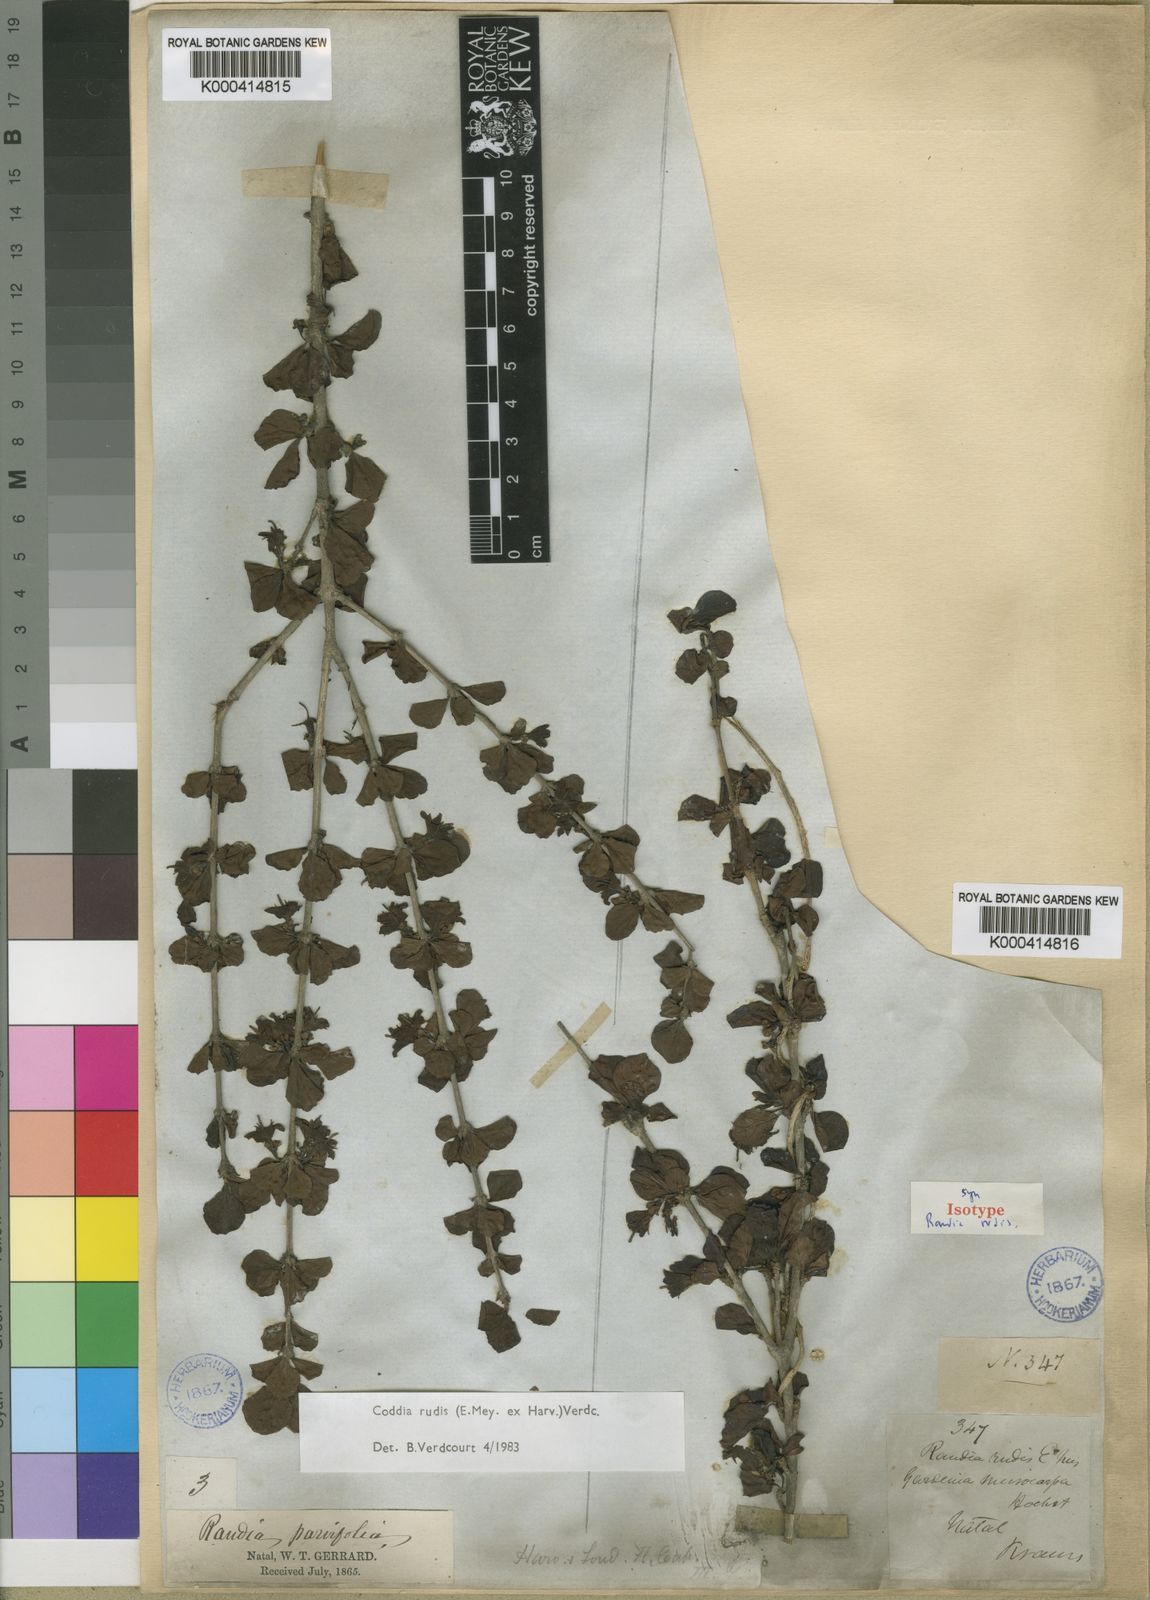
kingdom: Plantae
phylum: Tracheophyta
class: Magnoliopsida
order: Gentianales
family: Rubiaceae
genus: Coddia
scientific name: Coddia rudis
